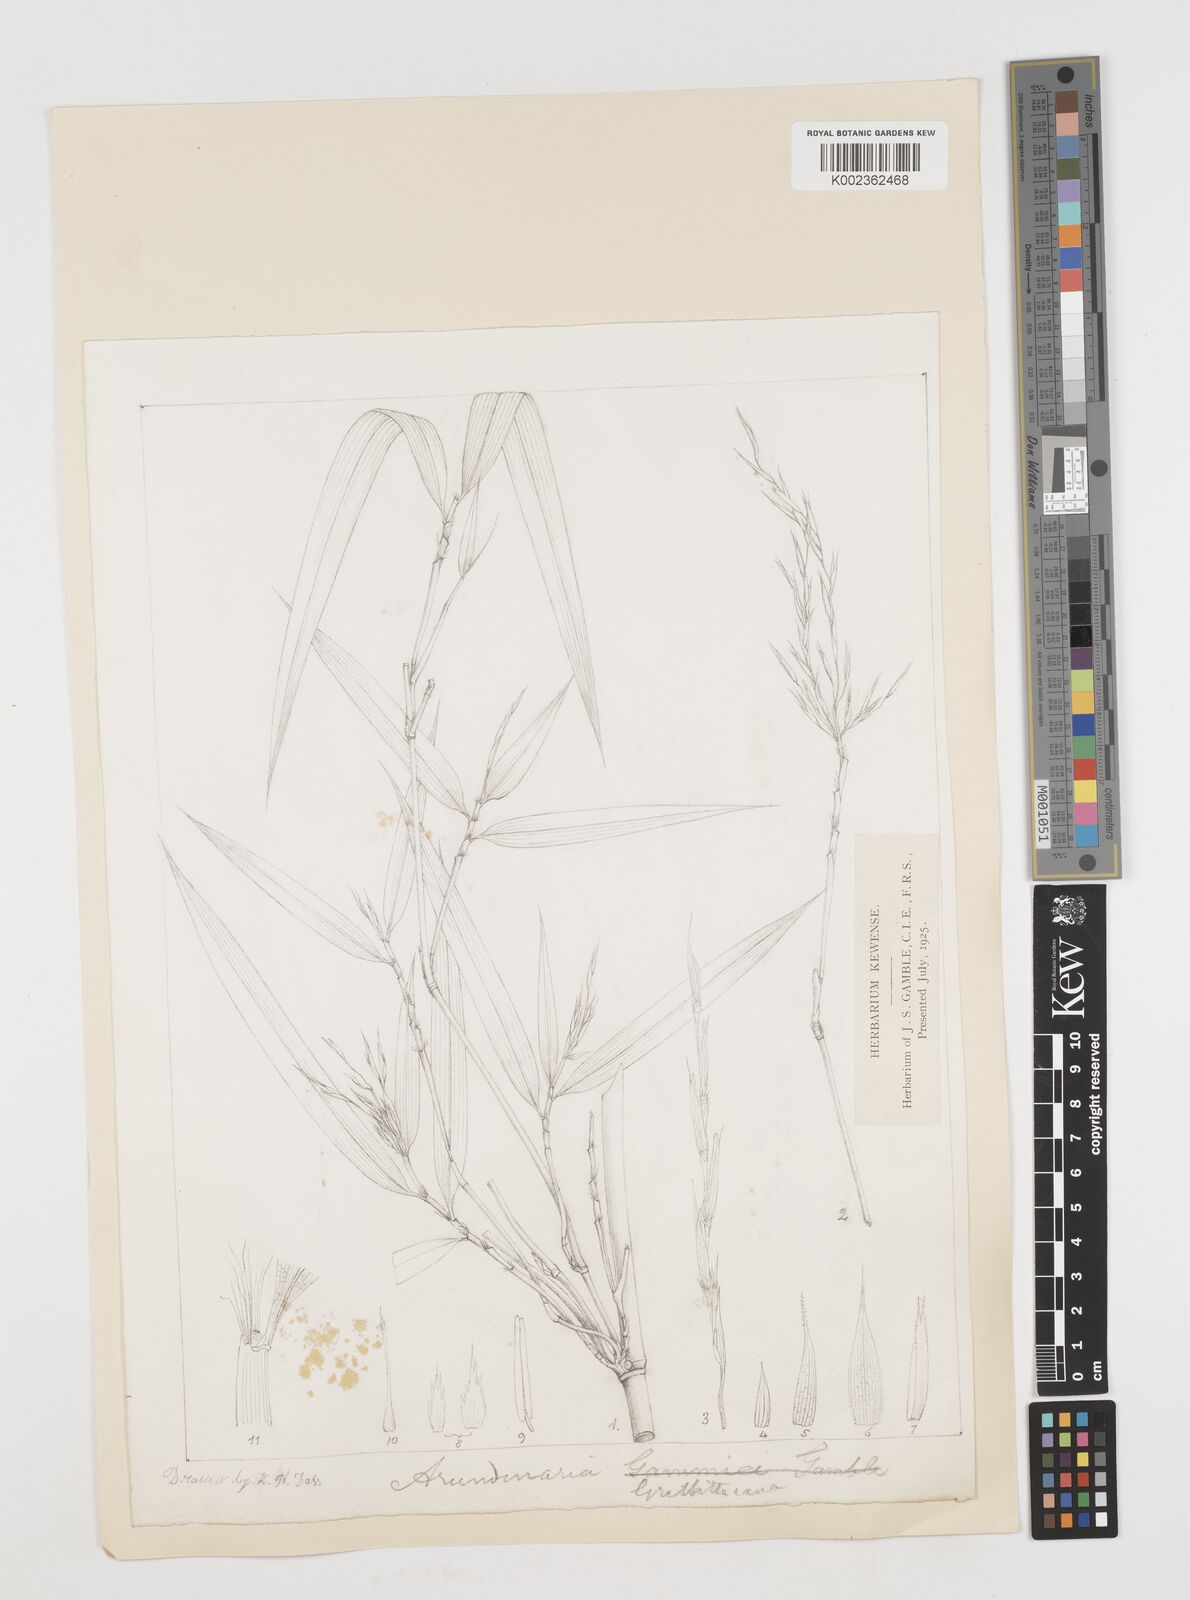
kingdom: Plantae
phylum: Tracheophyta
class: Liliopsida
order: Poales
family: Poaceae
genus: Chimonocalamus
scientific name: Chimonocalamus griffithianus
